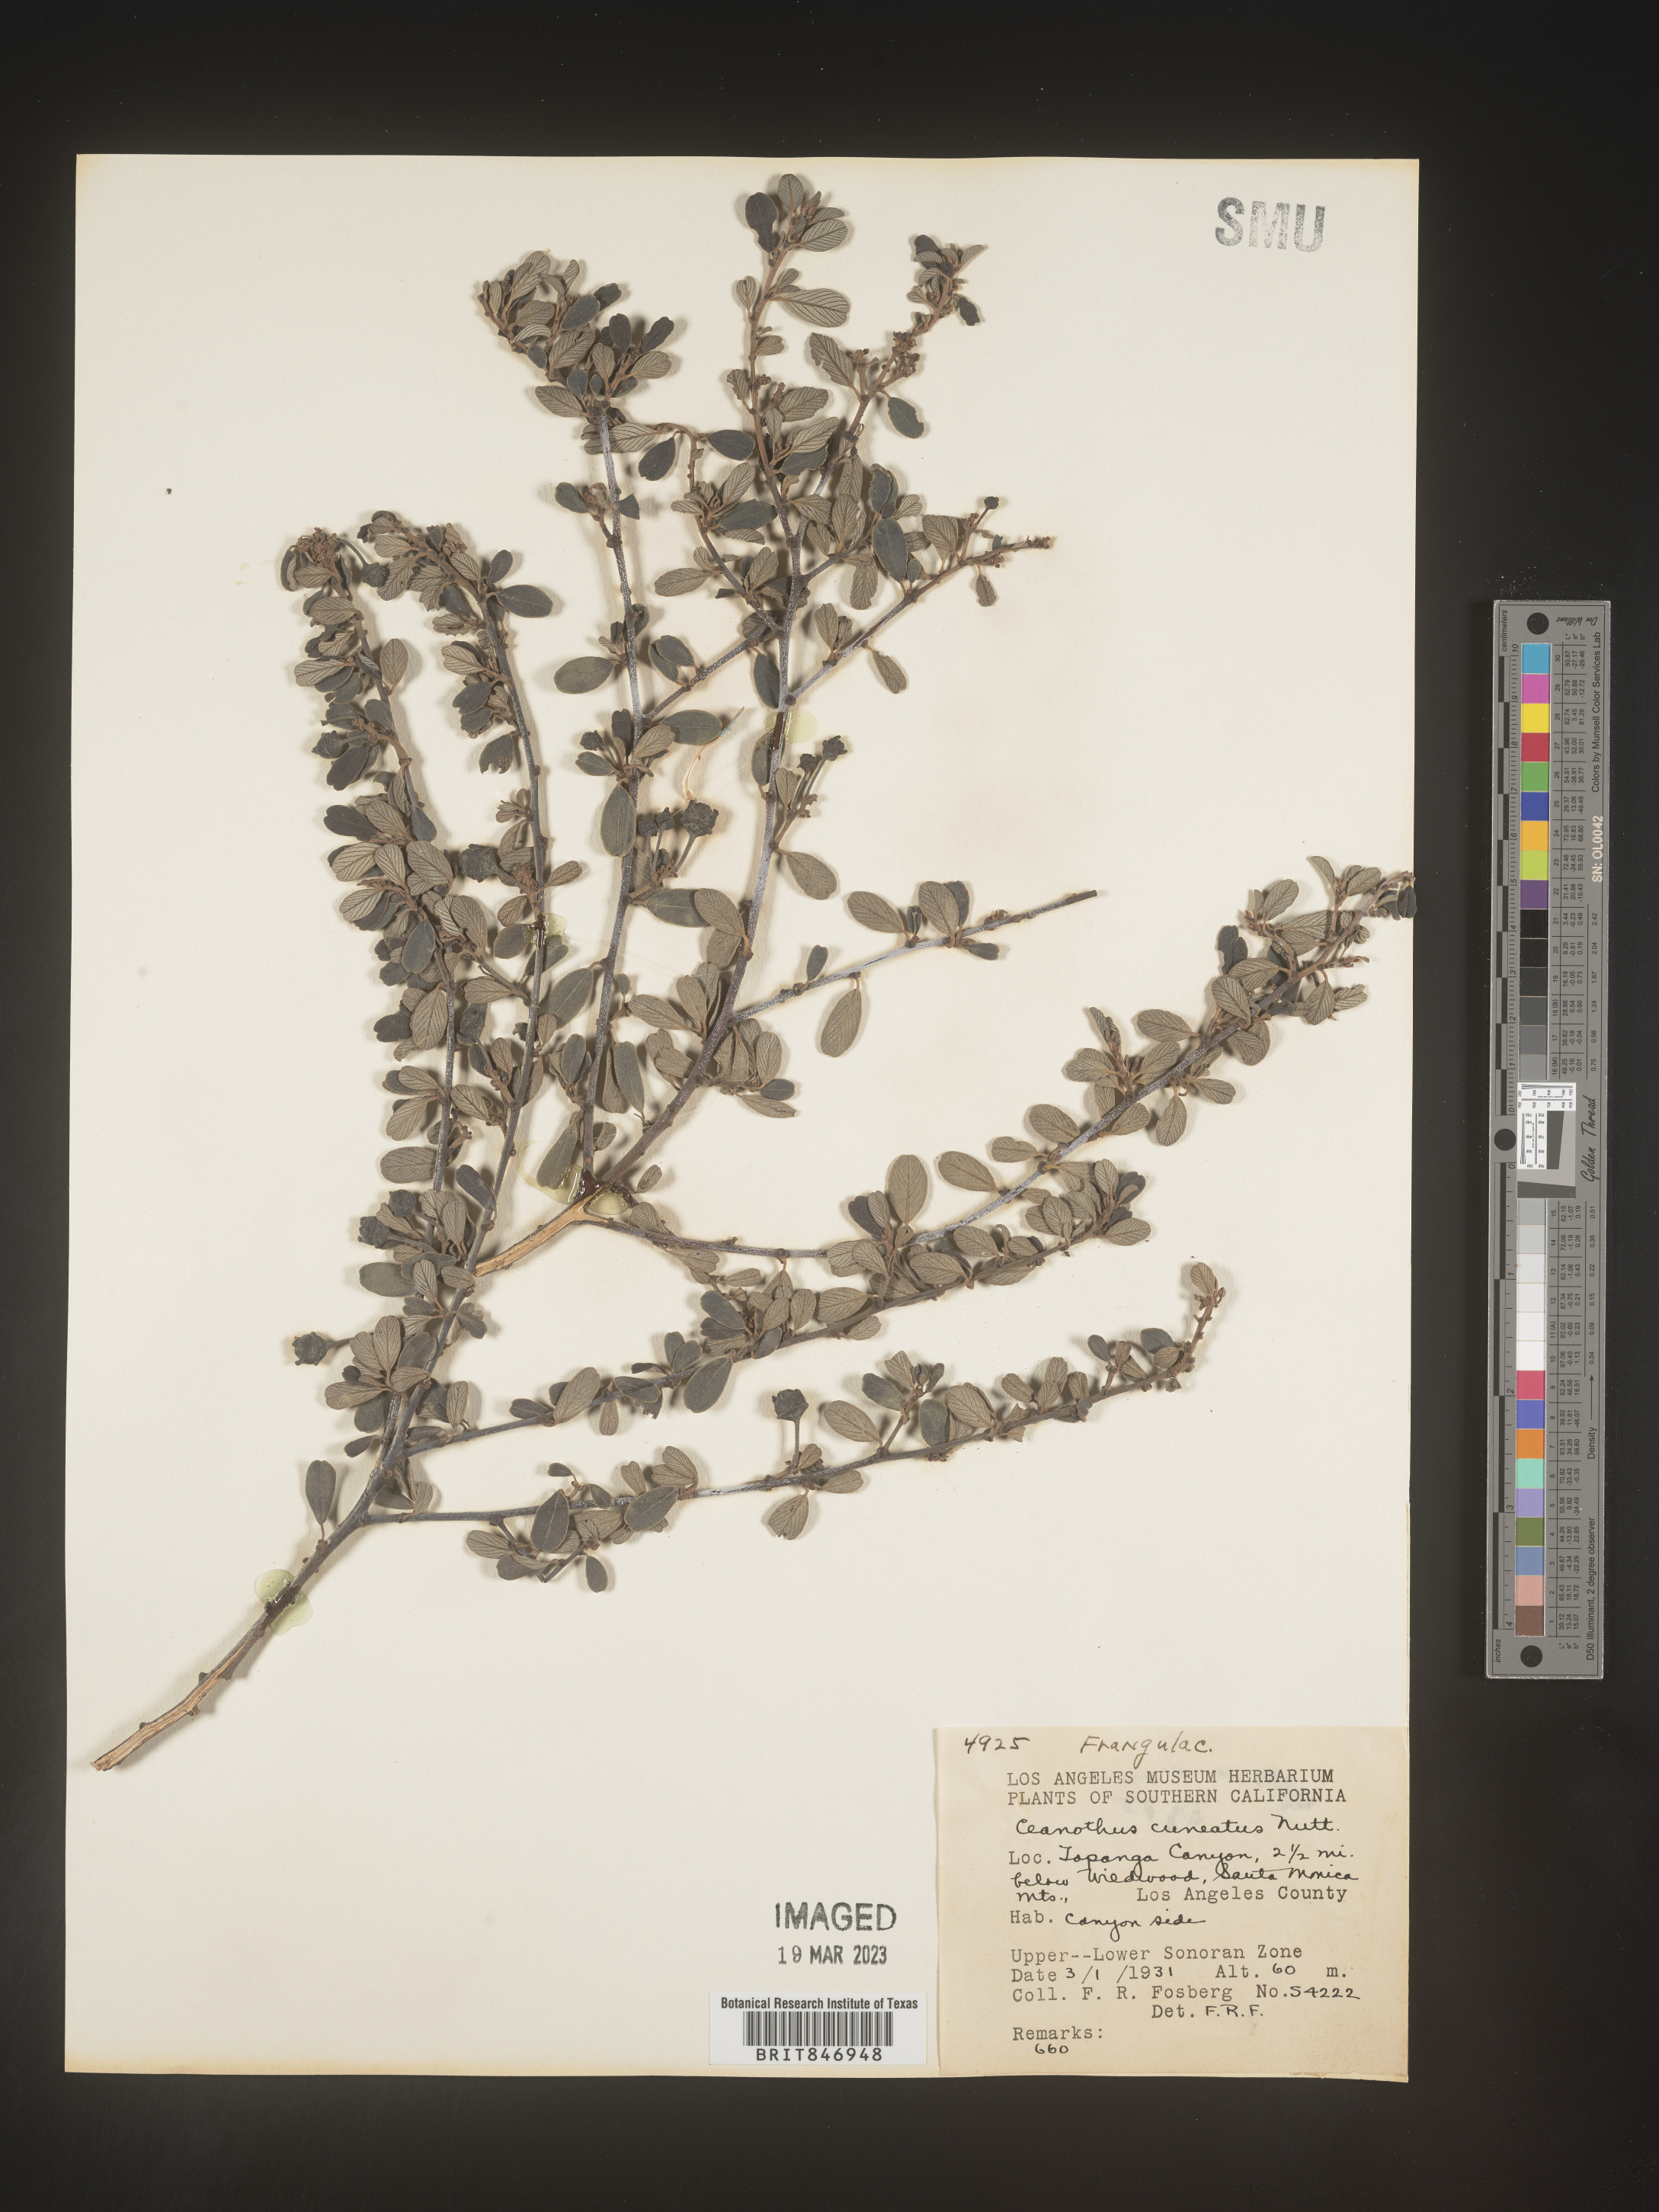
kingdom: Plantae
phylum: Tracheophyta
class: Magnoliopsida
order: Rosales
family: Rhamnaceae
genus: Ceanothus
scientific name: Ceanothus cuneatus
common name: Cuneate ceanothus
